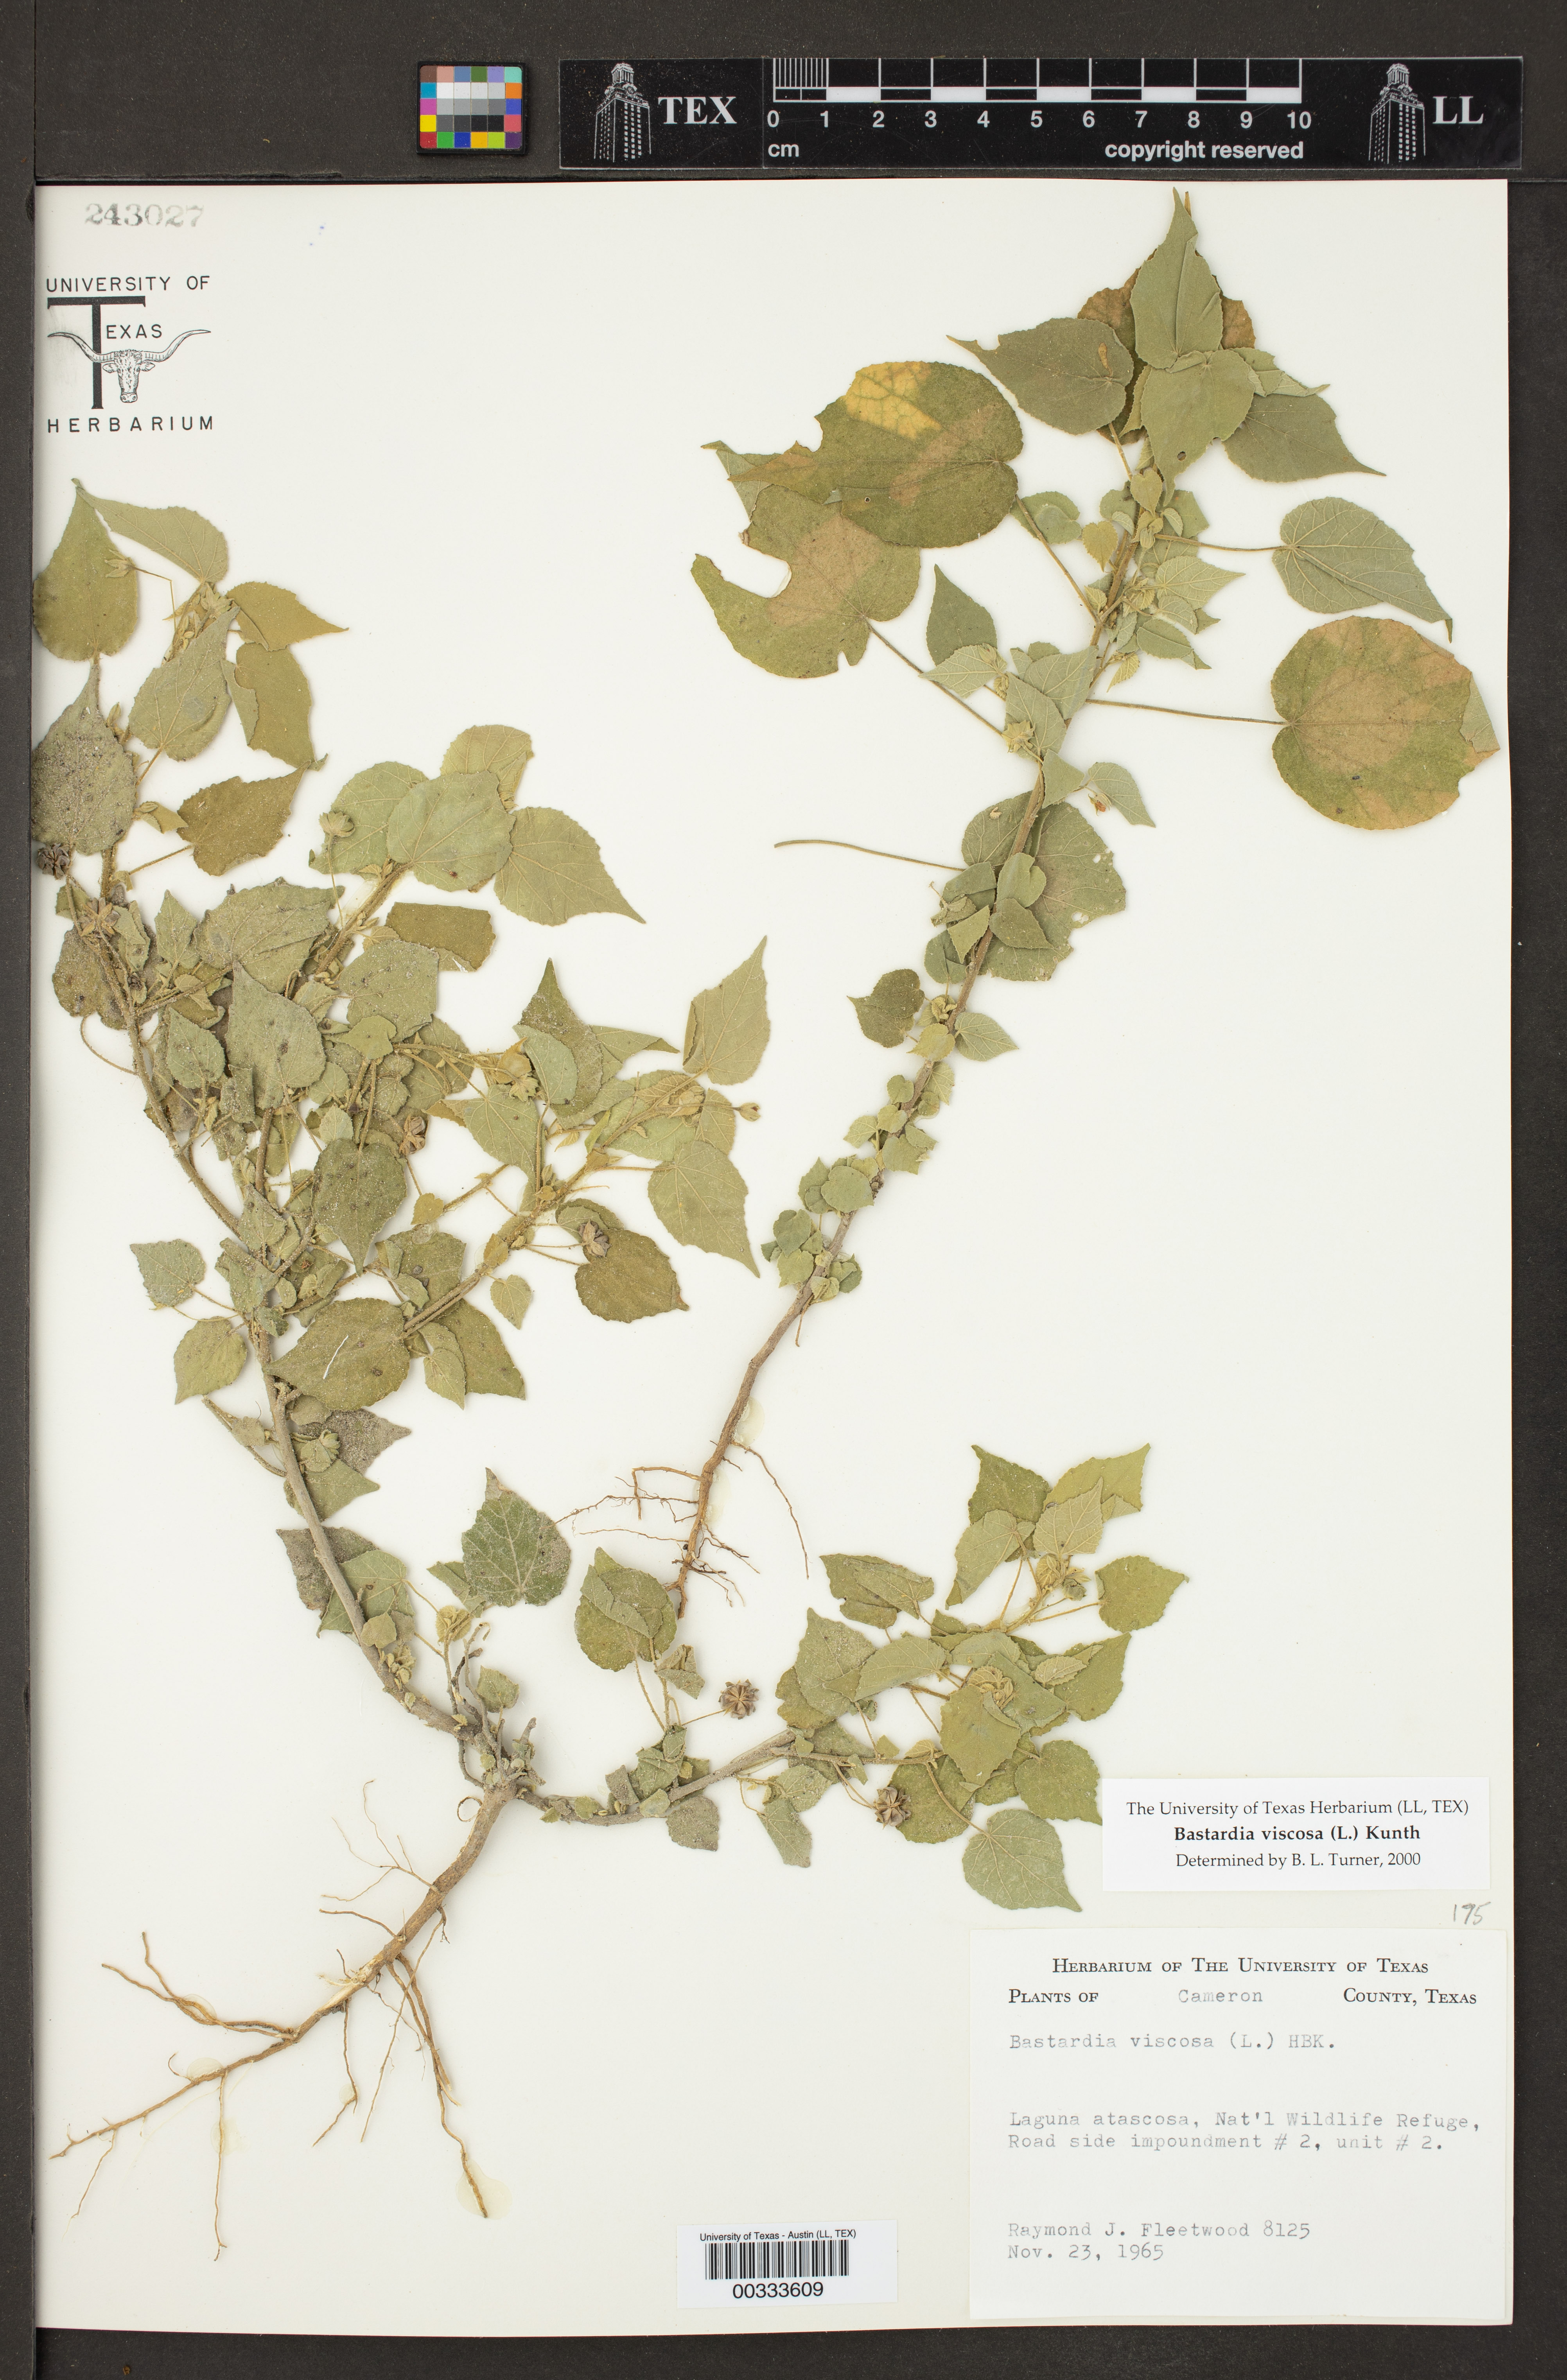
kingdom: Plantae
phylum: Tracheophyta
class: Magnoliopsida
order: Malvales
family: Malvaceae
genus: Abutilon
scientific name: Abutilon viscosum
